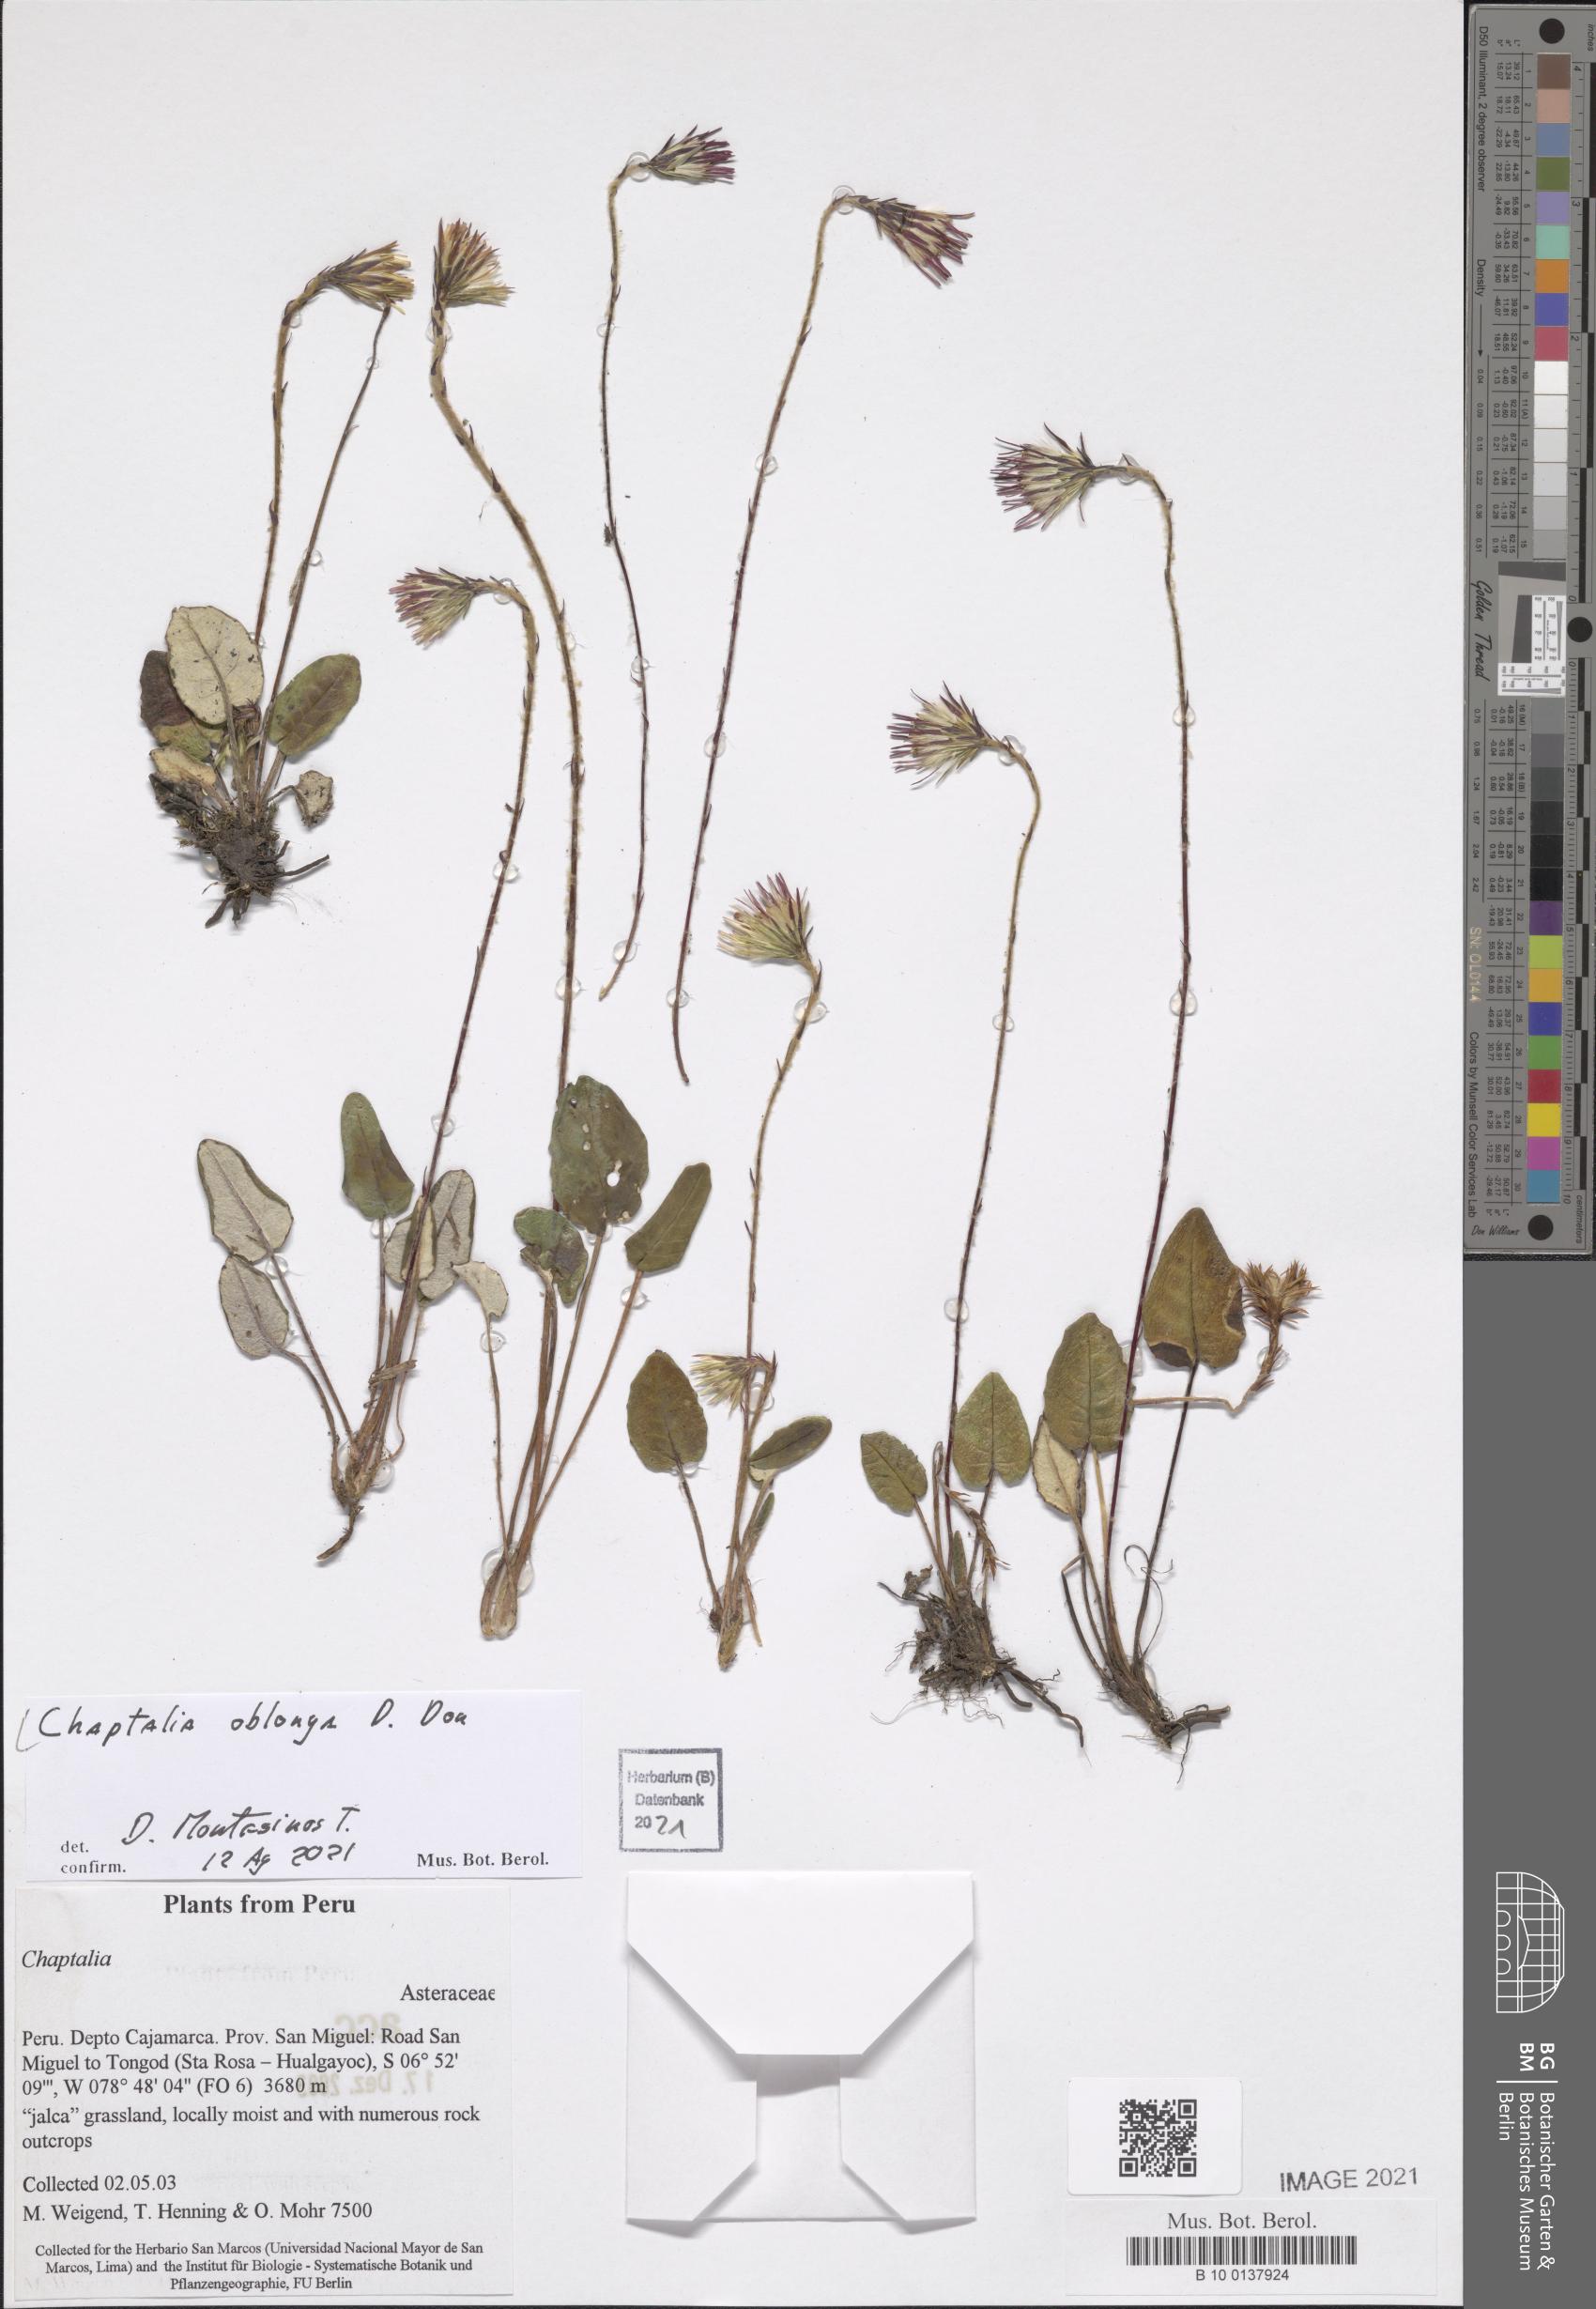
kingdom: Plantae
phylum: Tracheophyta
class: Magnoliopsida
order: Asterales
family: Asteraceae
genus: Chaptalia
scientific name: Chaptalia nutans
